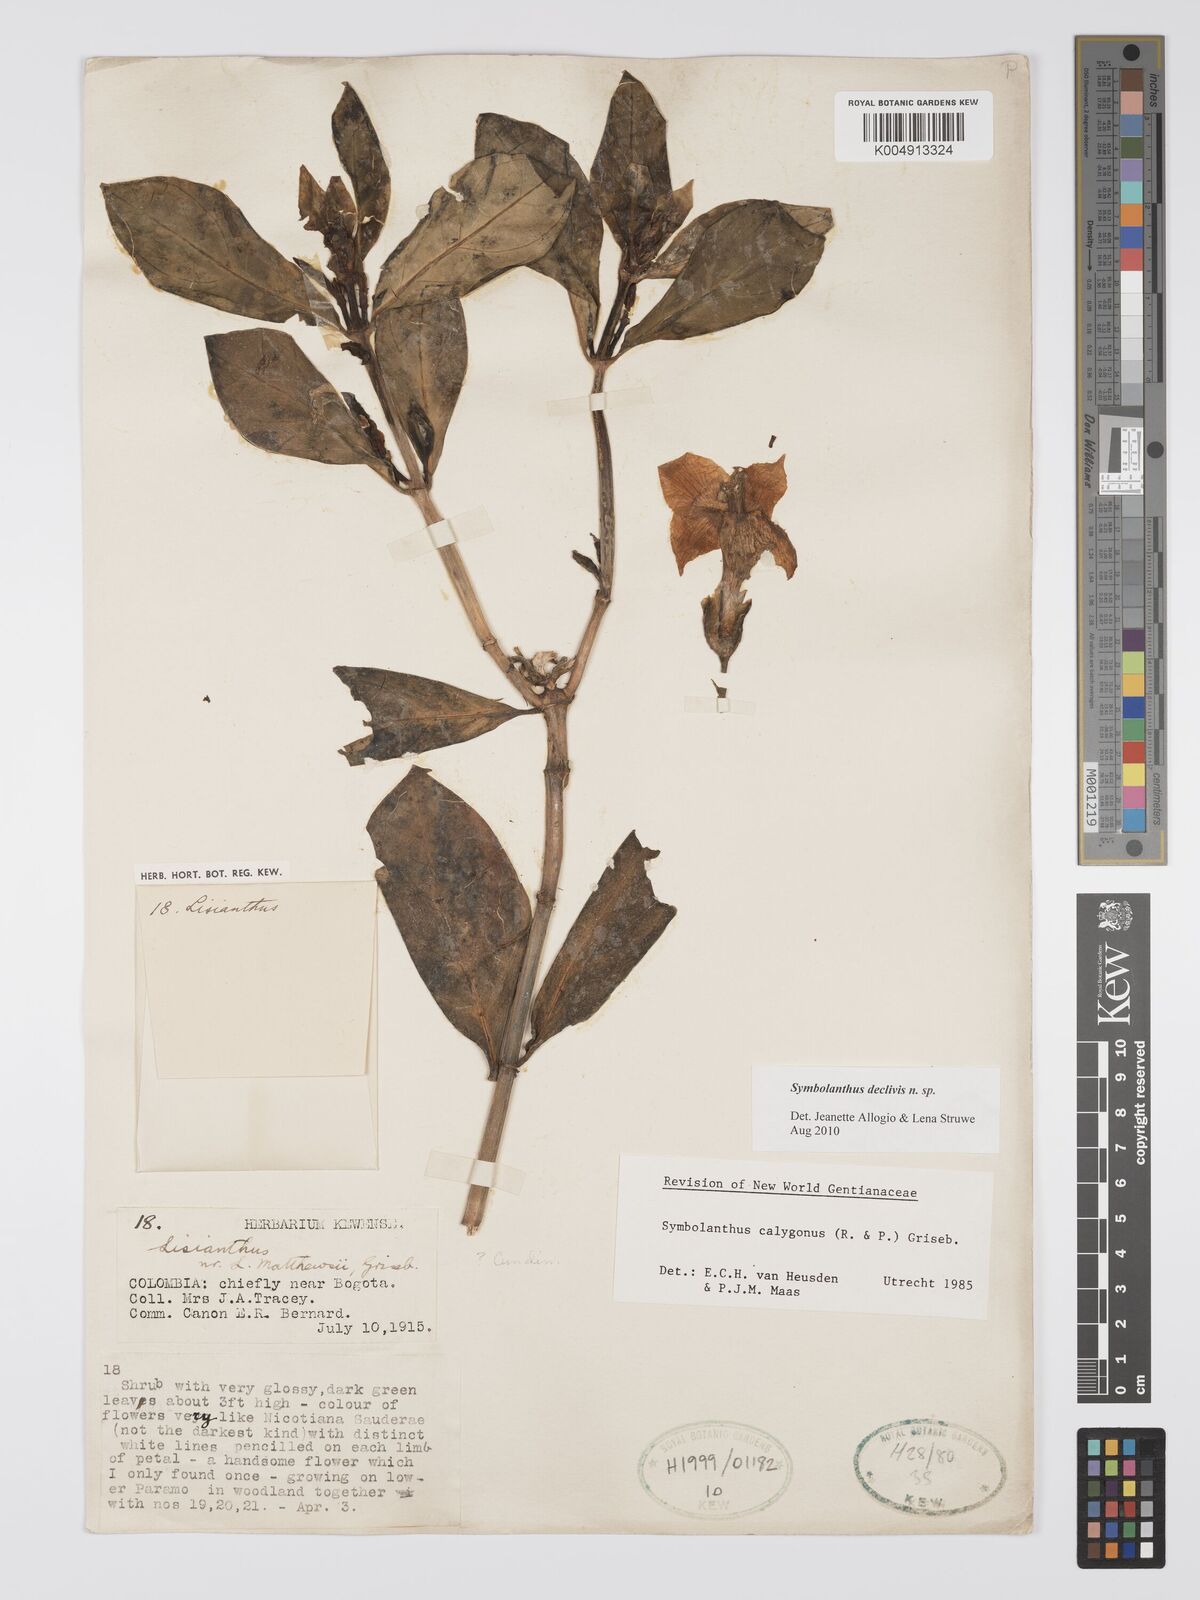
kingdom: Plantae
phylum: Tracheophyta
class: Magnoliopsida
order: Gentianales
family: Gentianaceae
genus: Symbolanthus
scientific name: Symbolanthus
